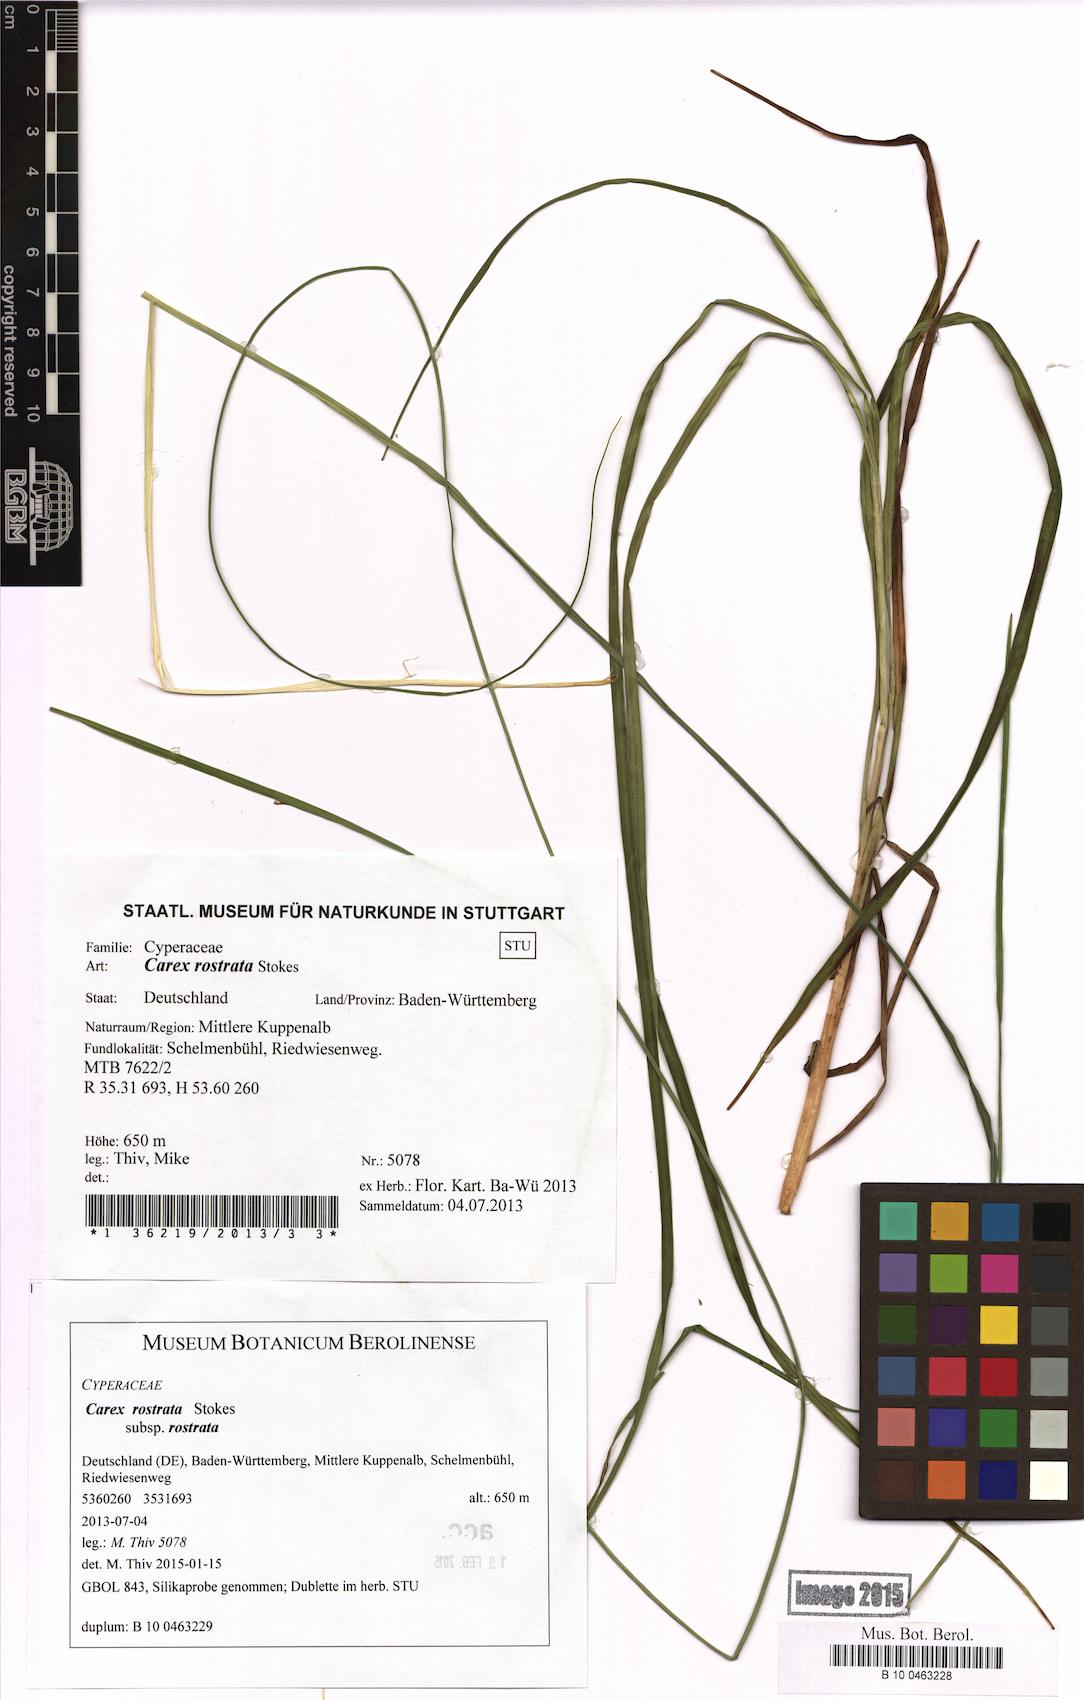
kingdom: Plantae
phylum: Tracheophyta
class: Liliopsida
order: Poales
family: Cyperaceae
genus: Carex
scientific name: Carex rostrata
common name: Bottle sedge
